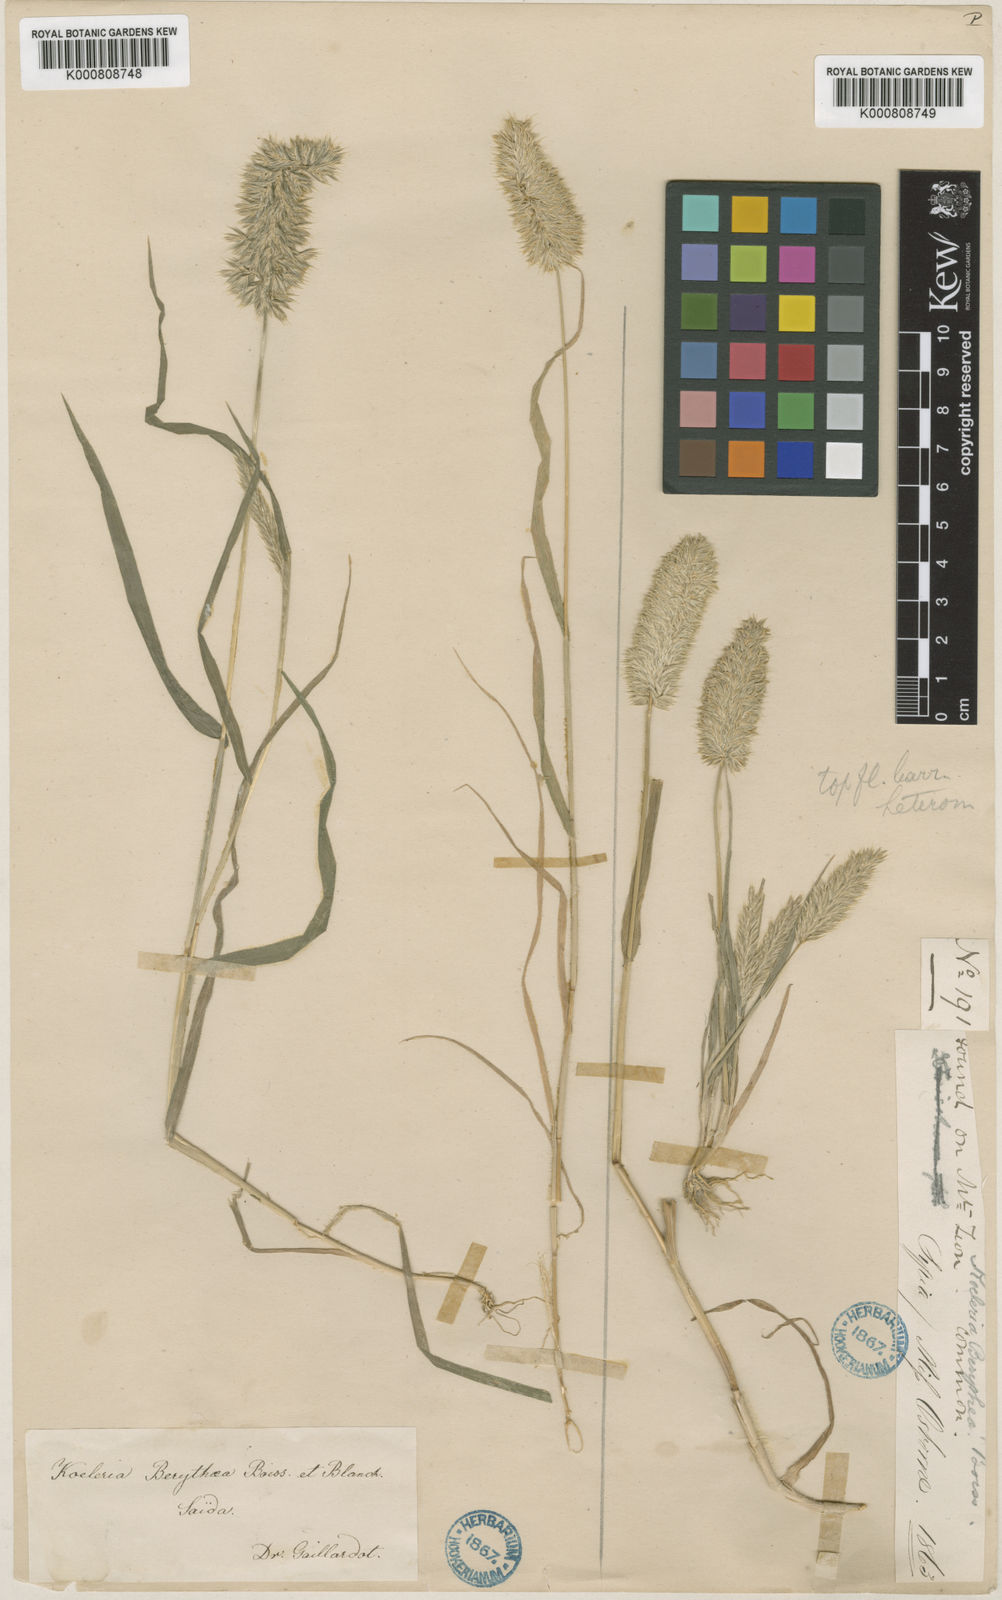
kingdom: Plantae
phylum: Tracheophyta
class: Liliopsida
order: Poales
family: Poaceae
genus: Rostraria
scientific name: Rostraria smyrnaea
